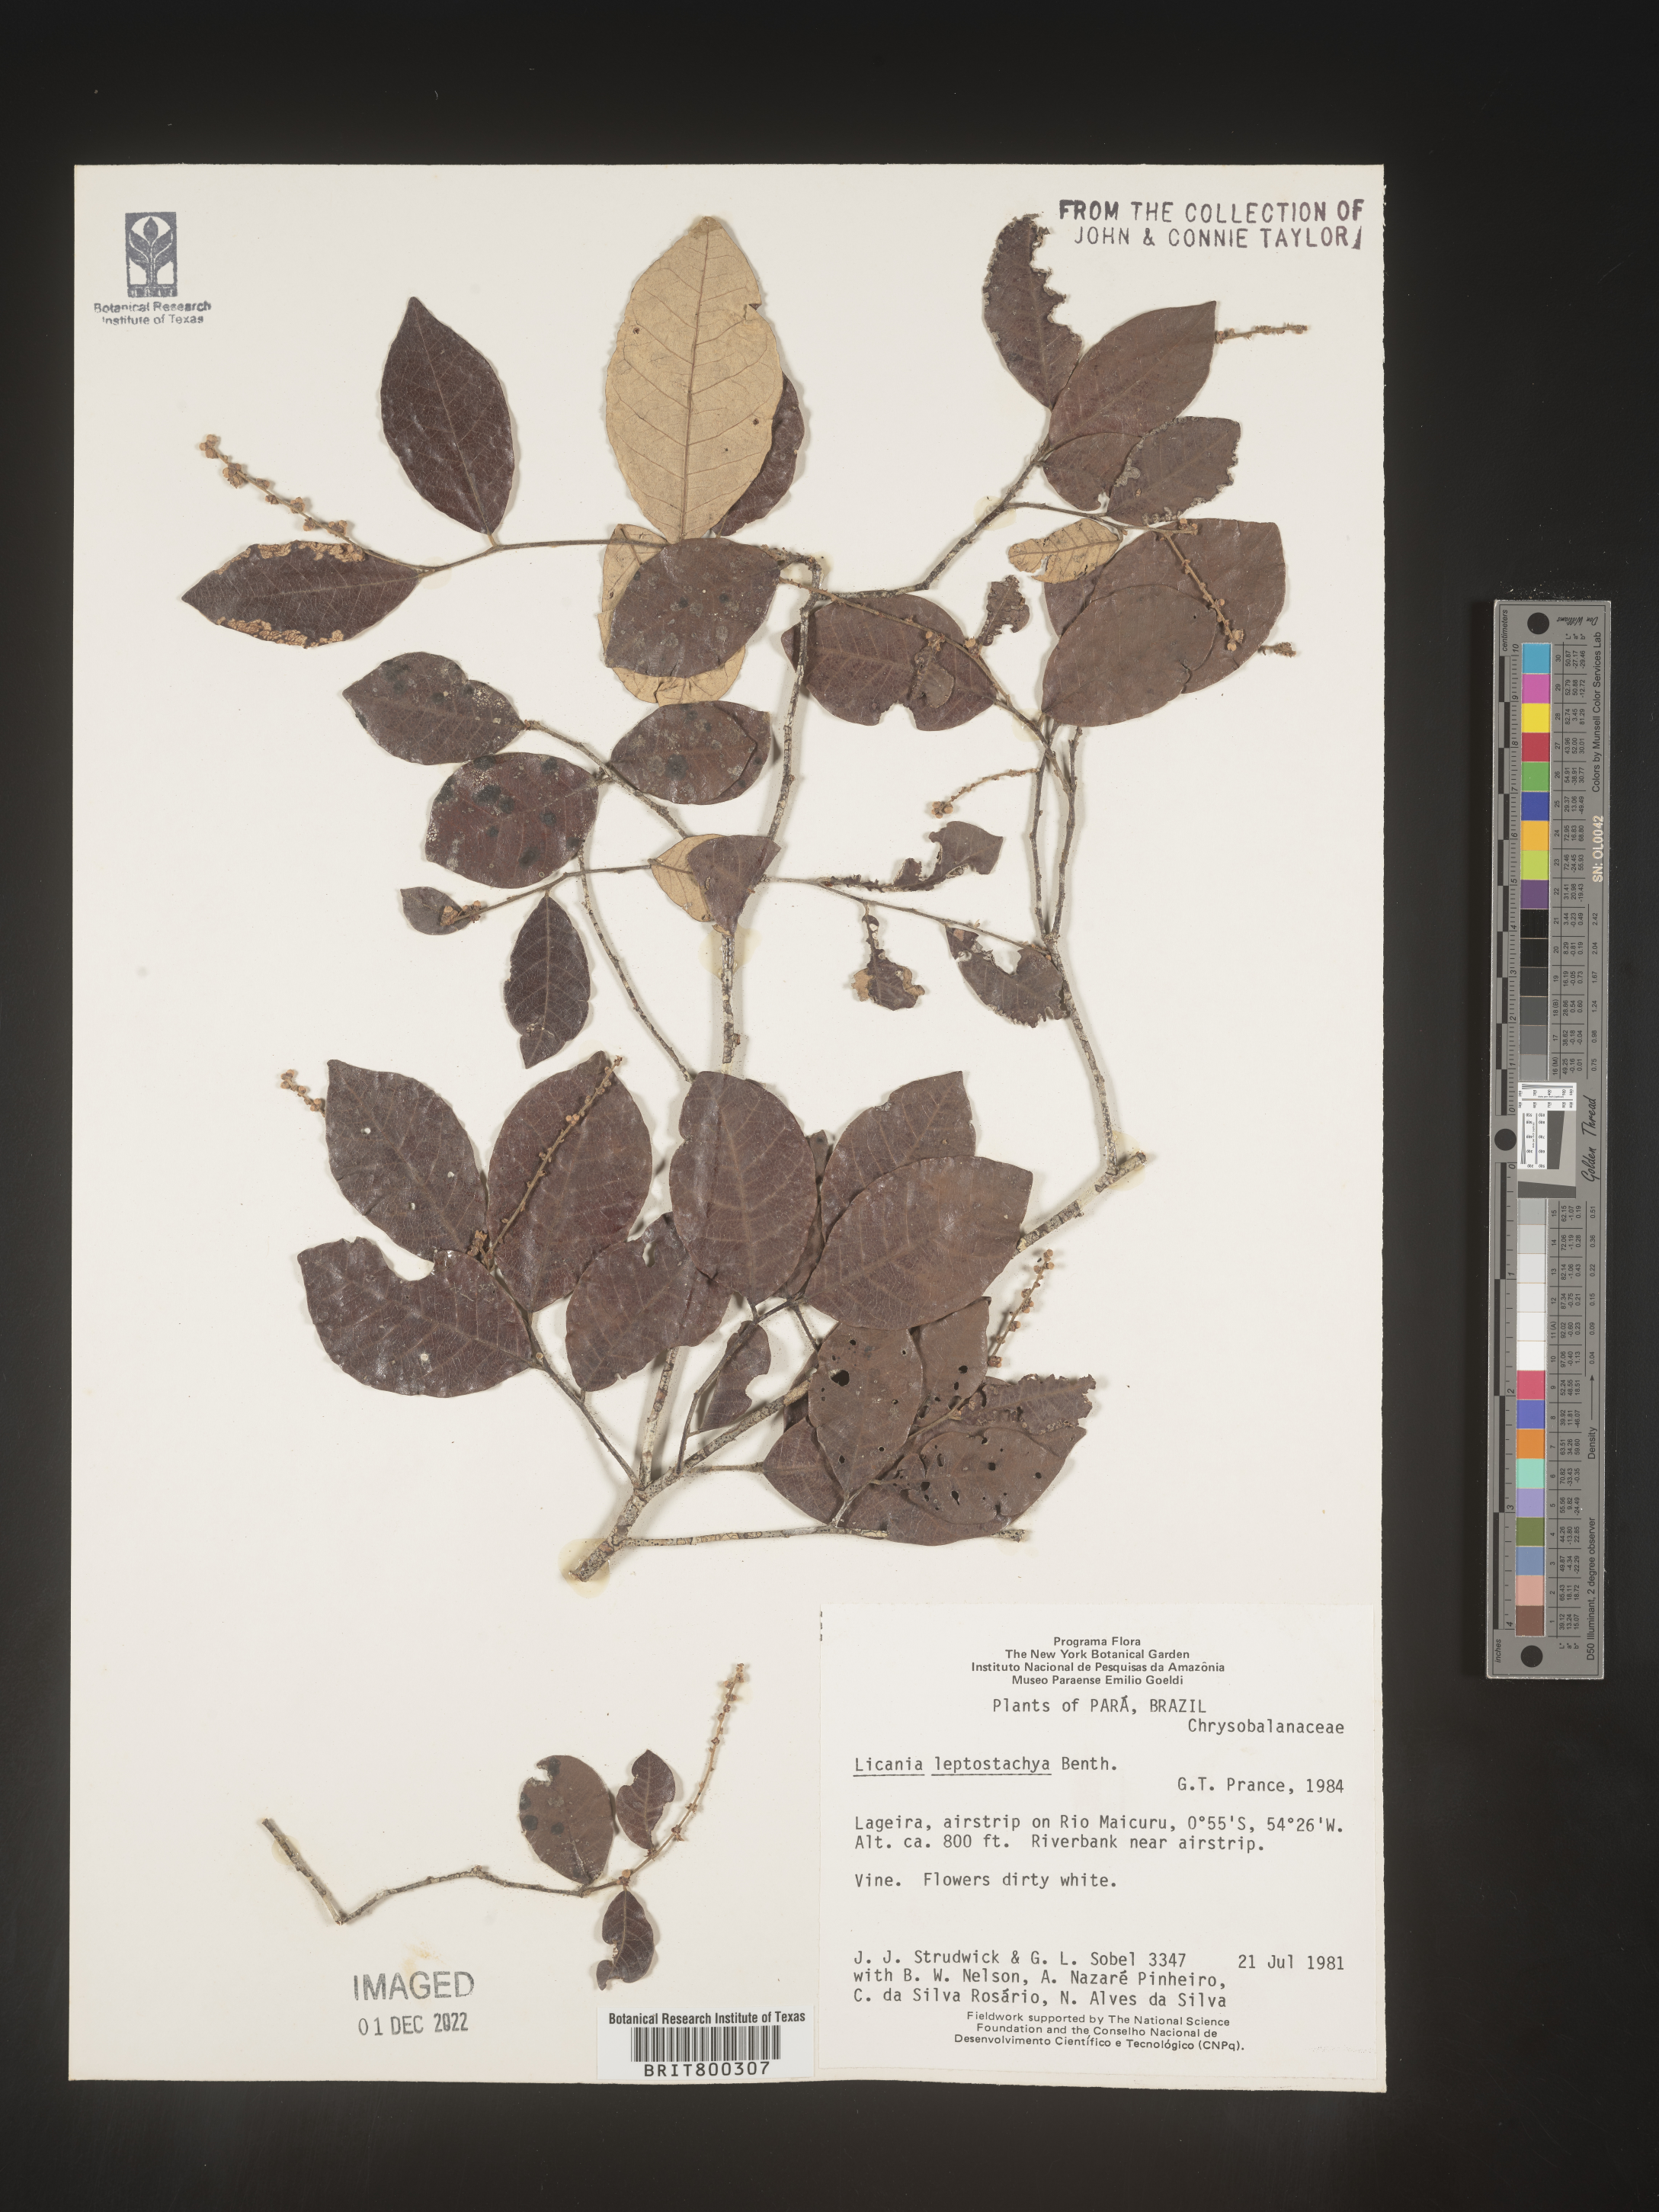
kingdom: Plantae
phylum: Tracheophyta
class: Magnoliopsida
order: Malpighiales
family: Chrysobalanaceae
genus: Licania
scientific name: Licania
